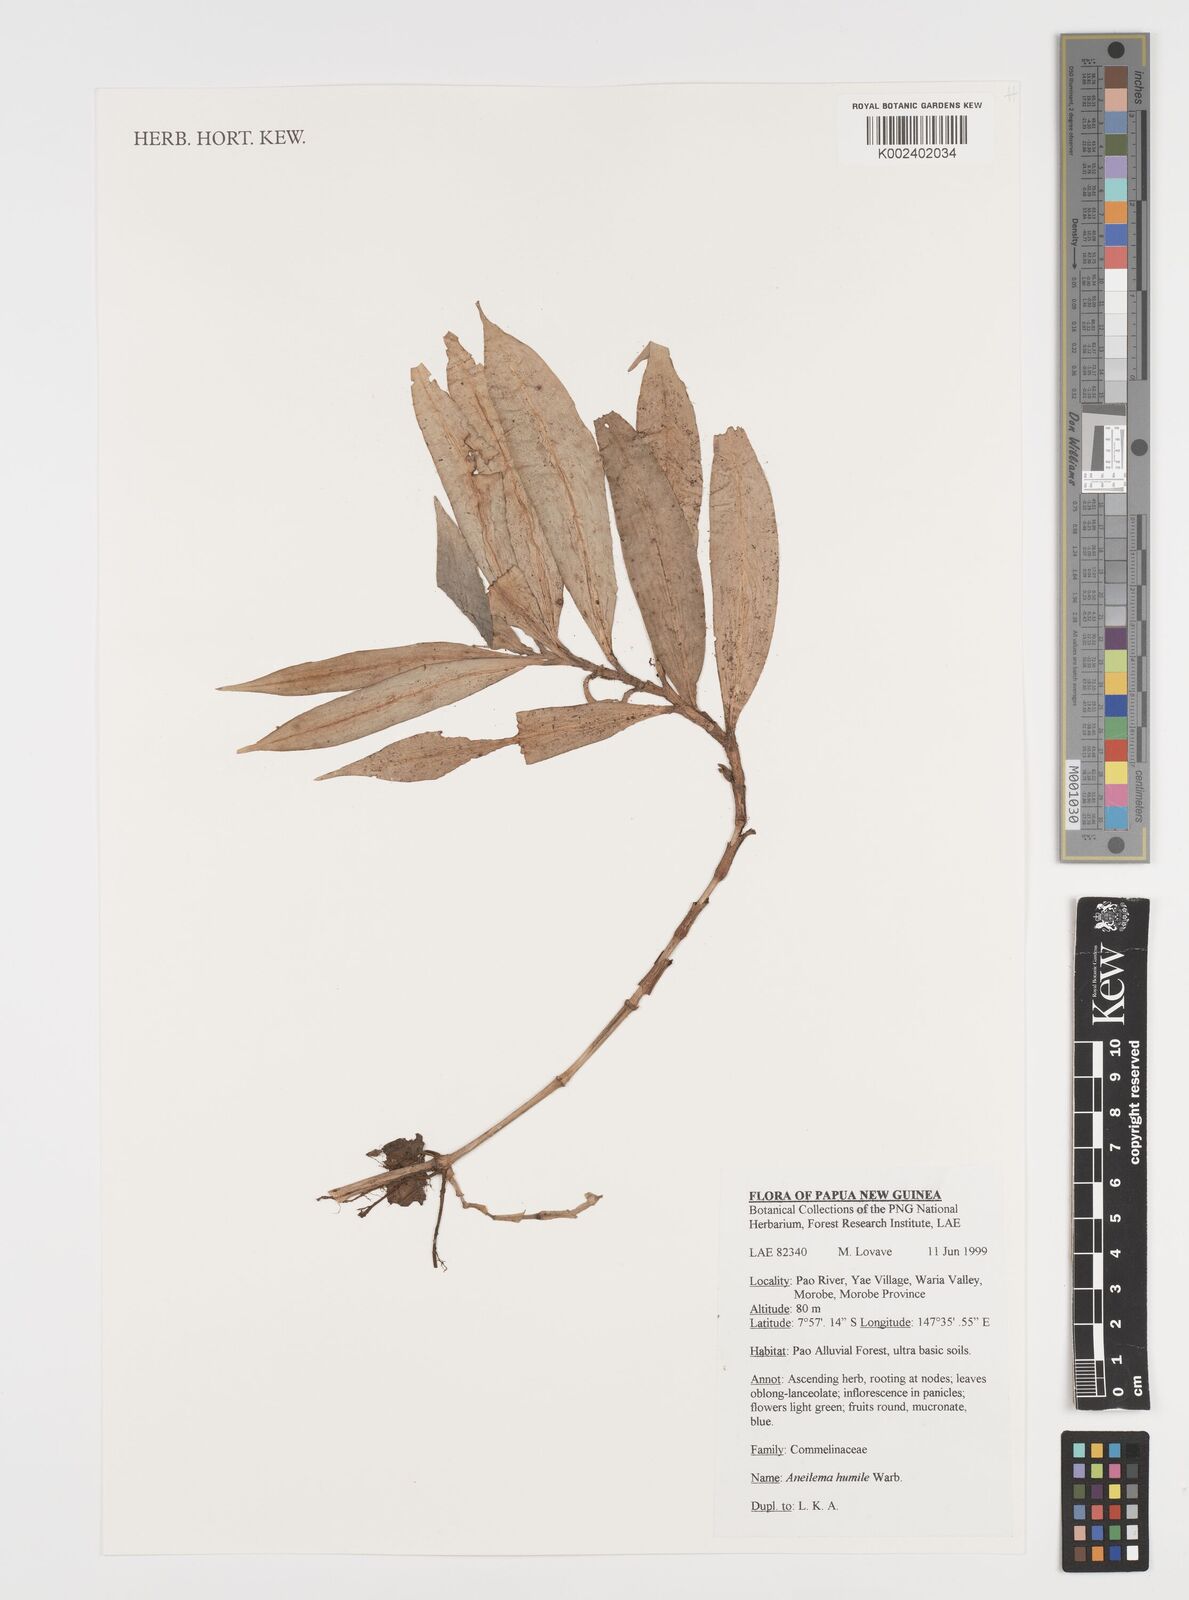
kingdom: Plantae
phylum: Tracheophyta
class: Liliopsida
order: Commelinales
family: Commelinaceae
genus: Dictyospermum
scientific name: Dictyospermum humile
